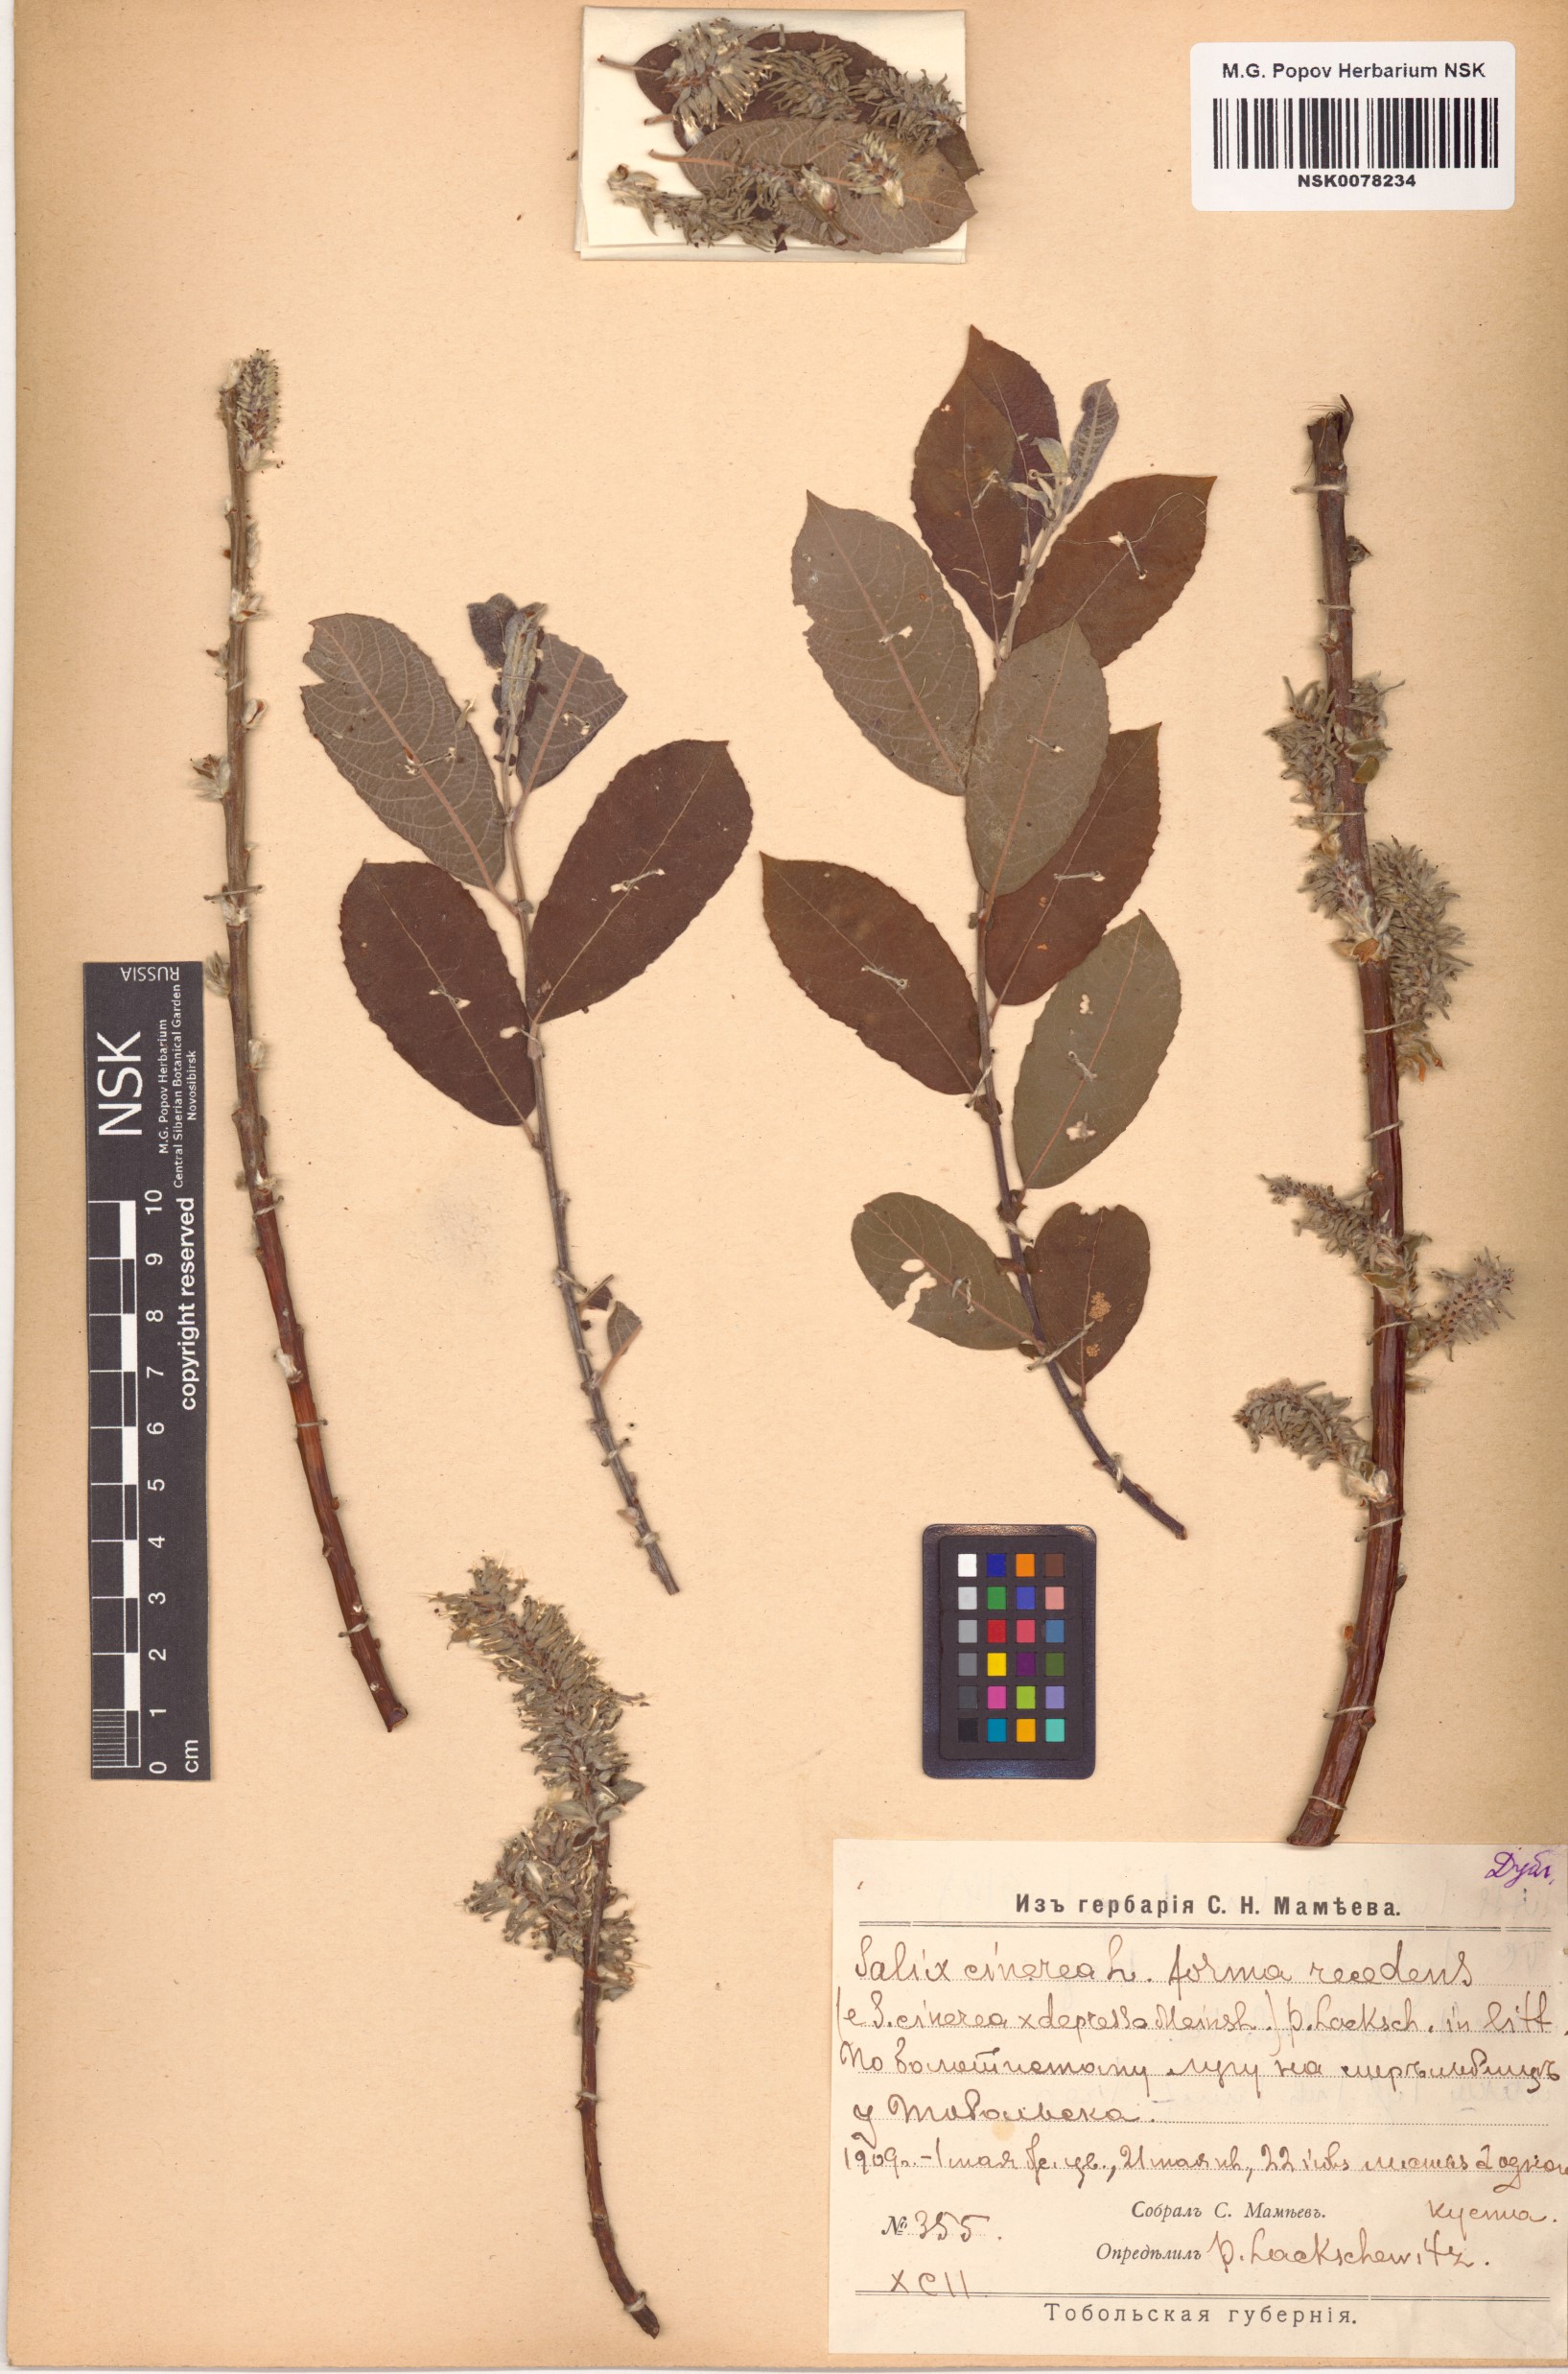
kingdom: Plantae
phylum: Tracheophyta
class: Magnoliopsida
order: Malpighiales
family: Salicaceae
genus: Salix
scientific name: Salix cinerea
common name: Common sallow
